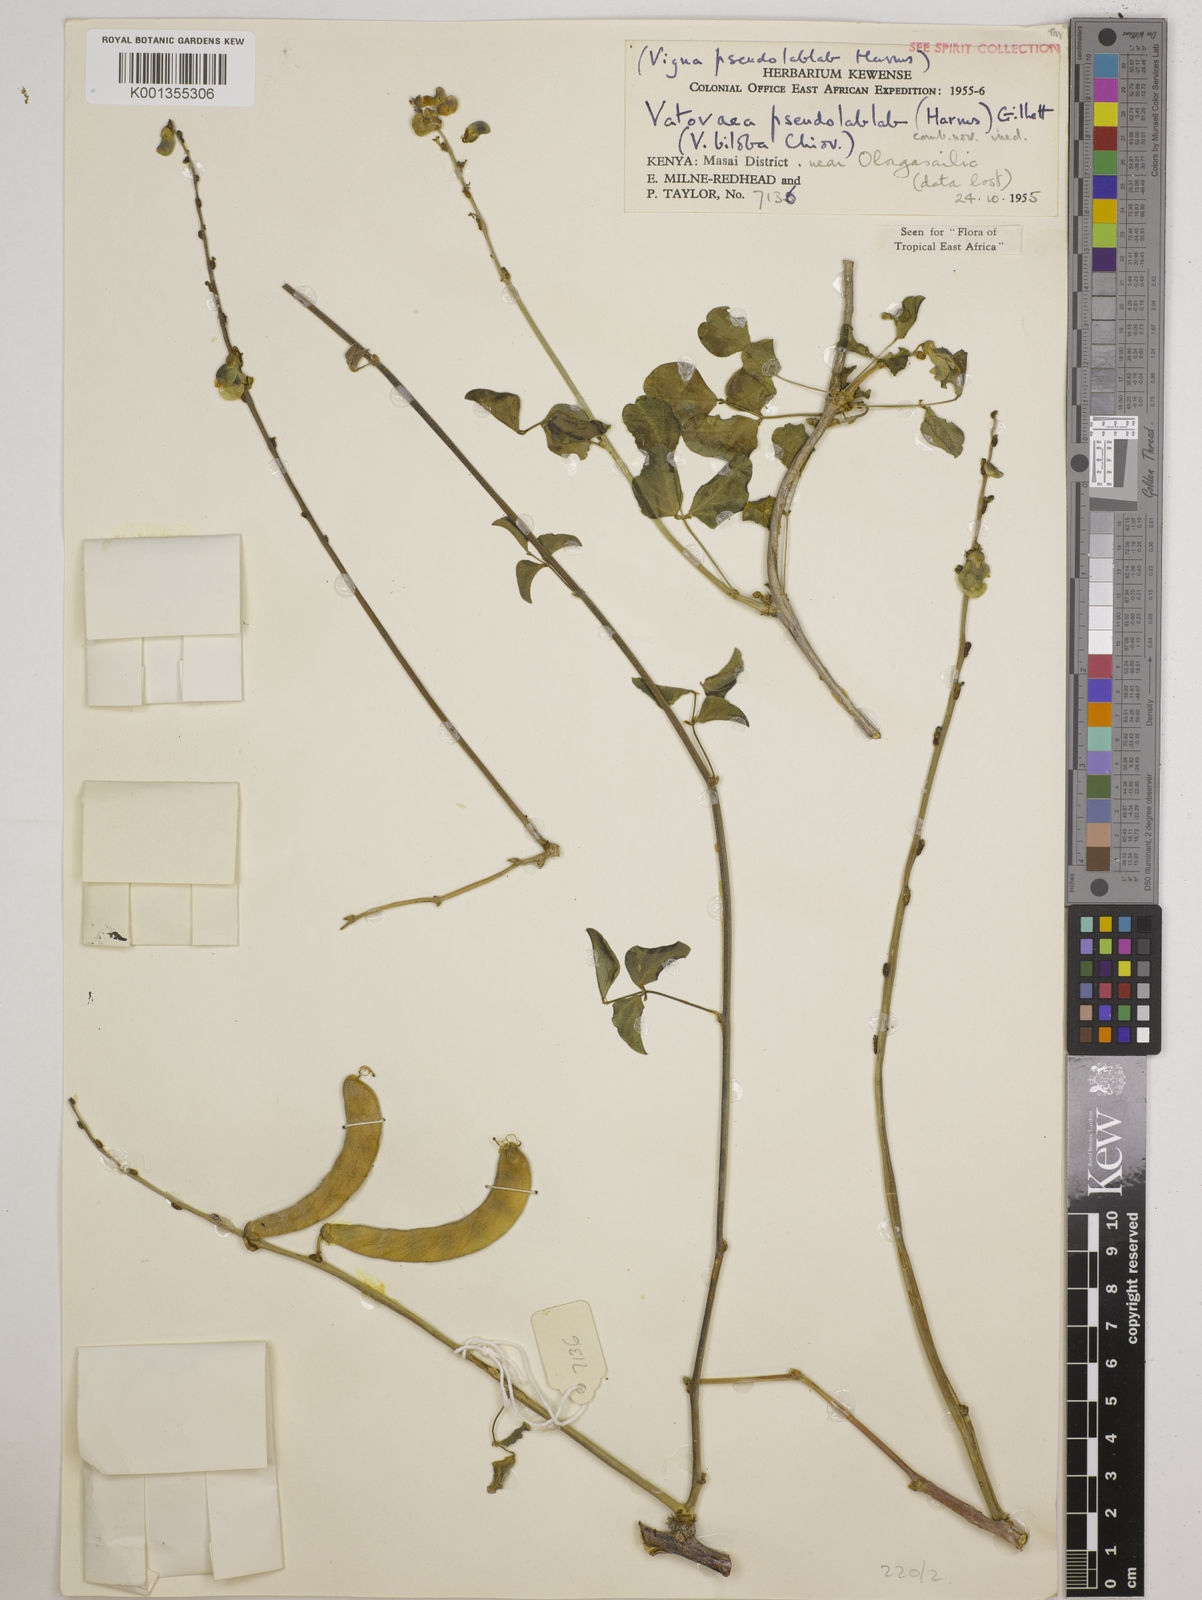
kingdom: Plantae
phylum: Tracheophyta
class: Magnoliopsida
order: Fabales
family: Fabaceae
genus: Vatovaea
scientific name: Vatovaea pseudolablab
